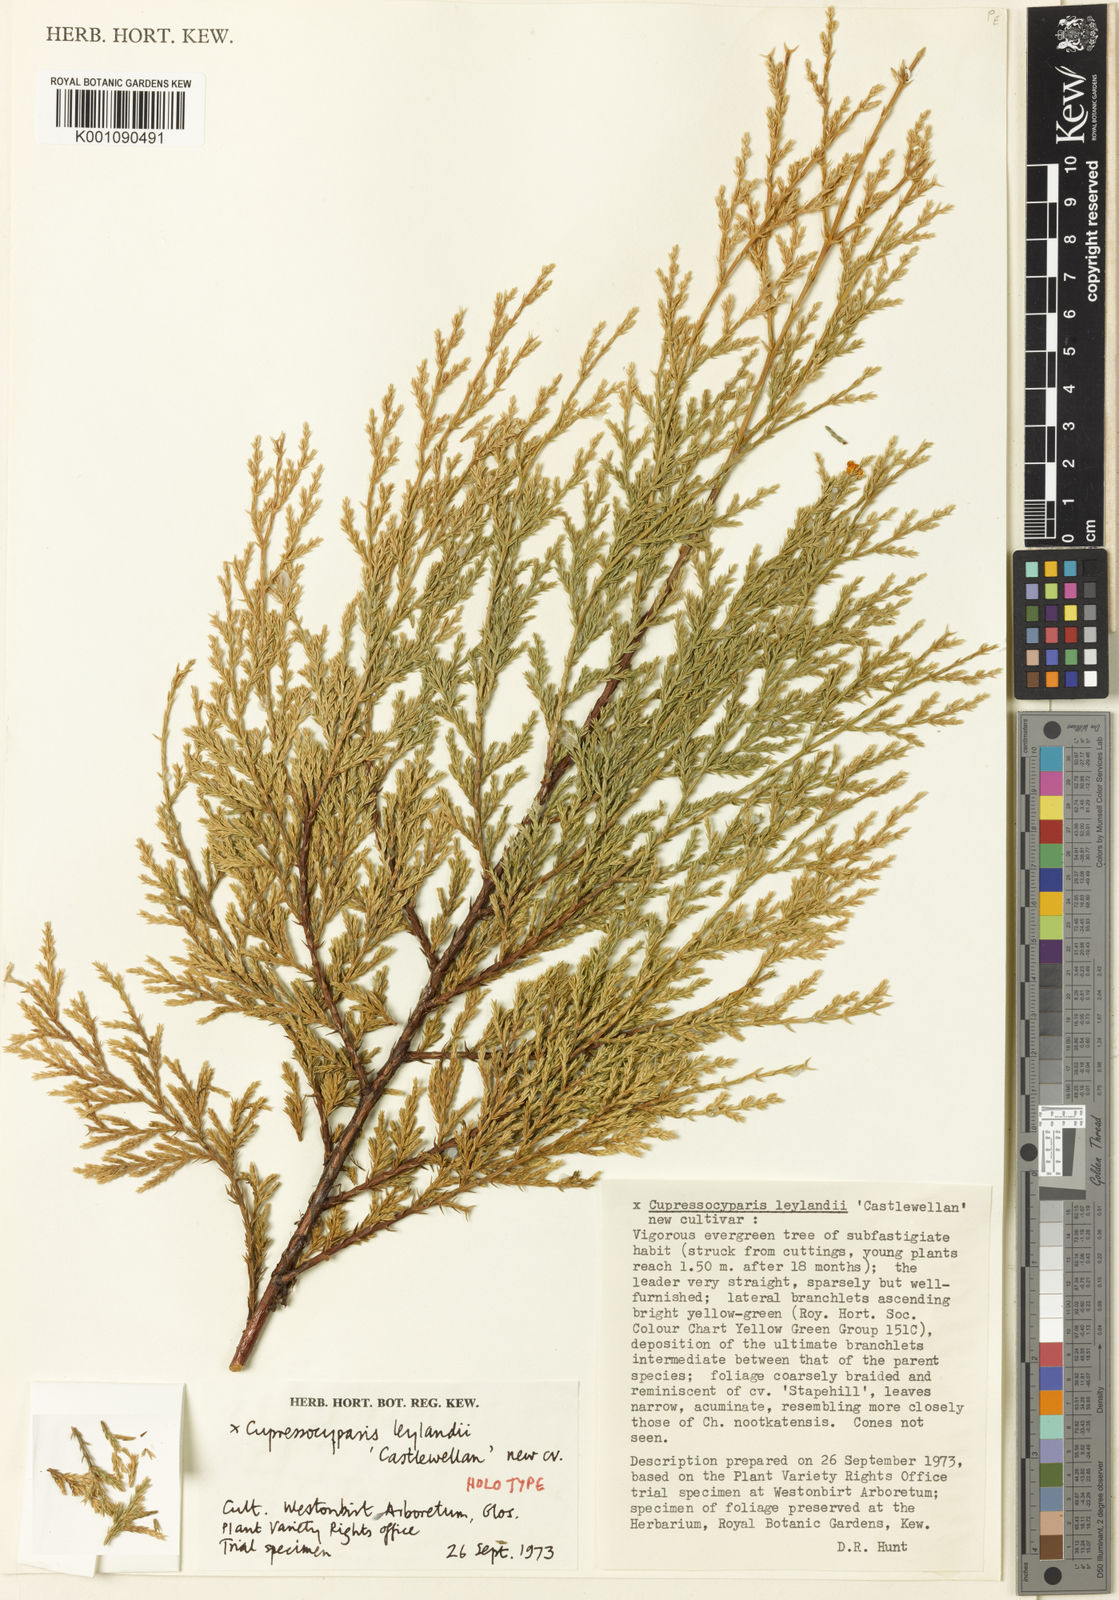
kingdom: Plantae
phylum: Tracheophyta
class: Pinopsida
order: Pinales
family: Cupressaceae
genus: Hesperotropsis
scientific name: Hesperotropsis leylandii
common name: Leyland cypress
